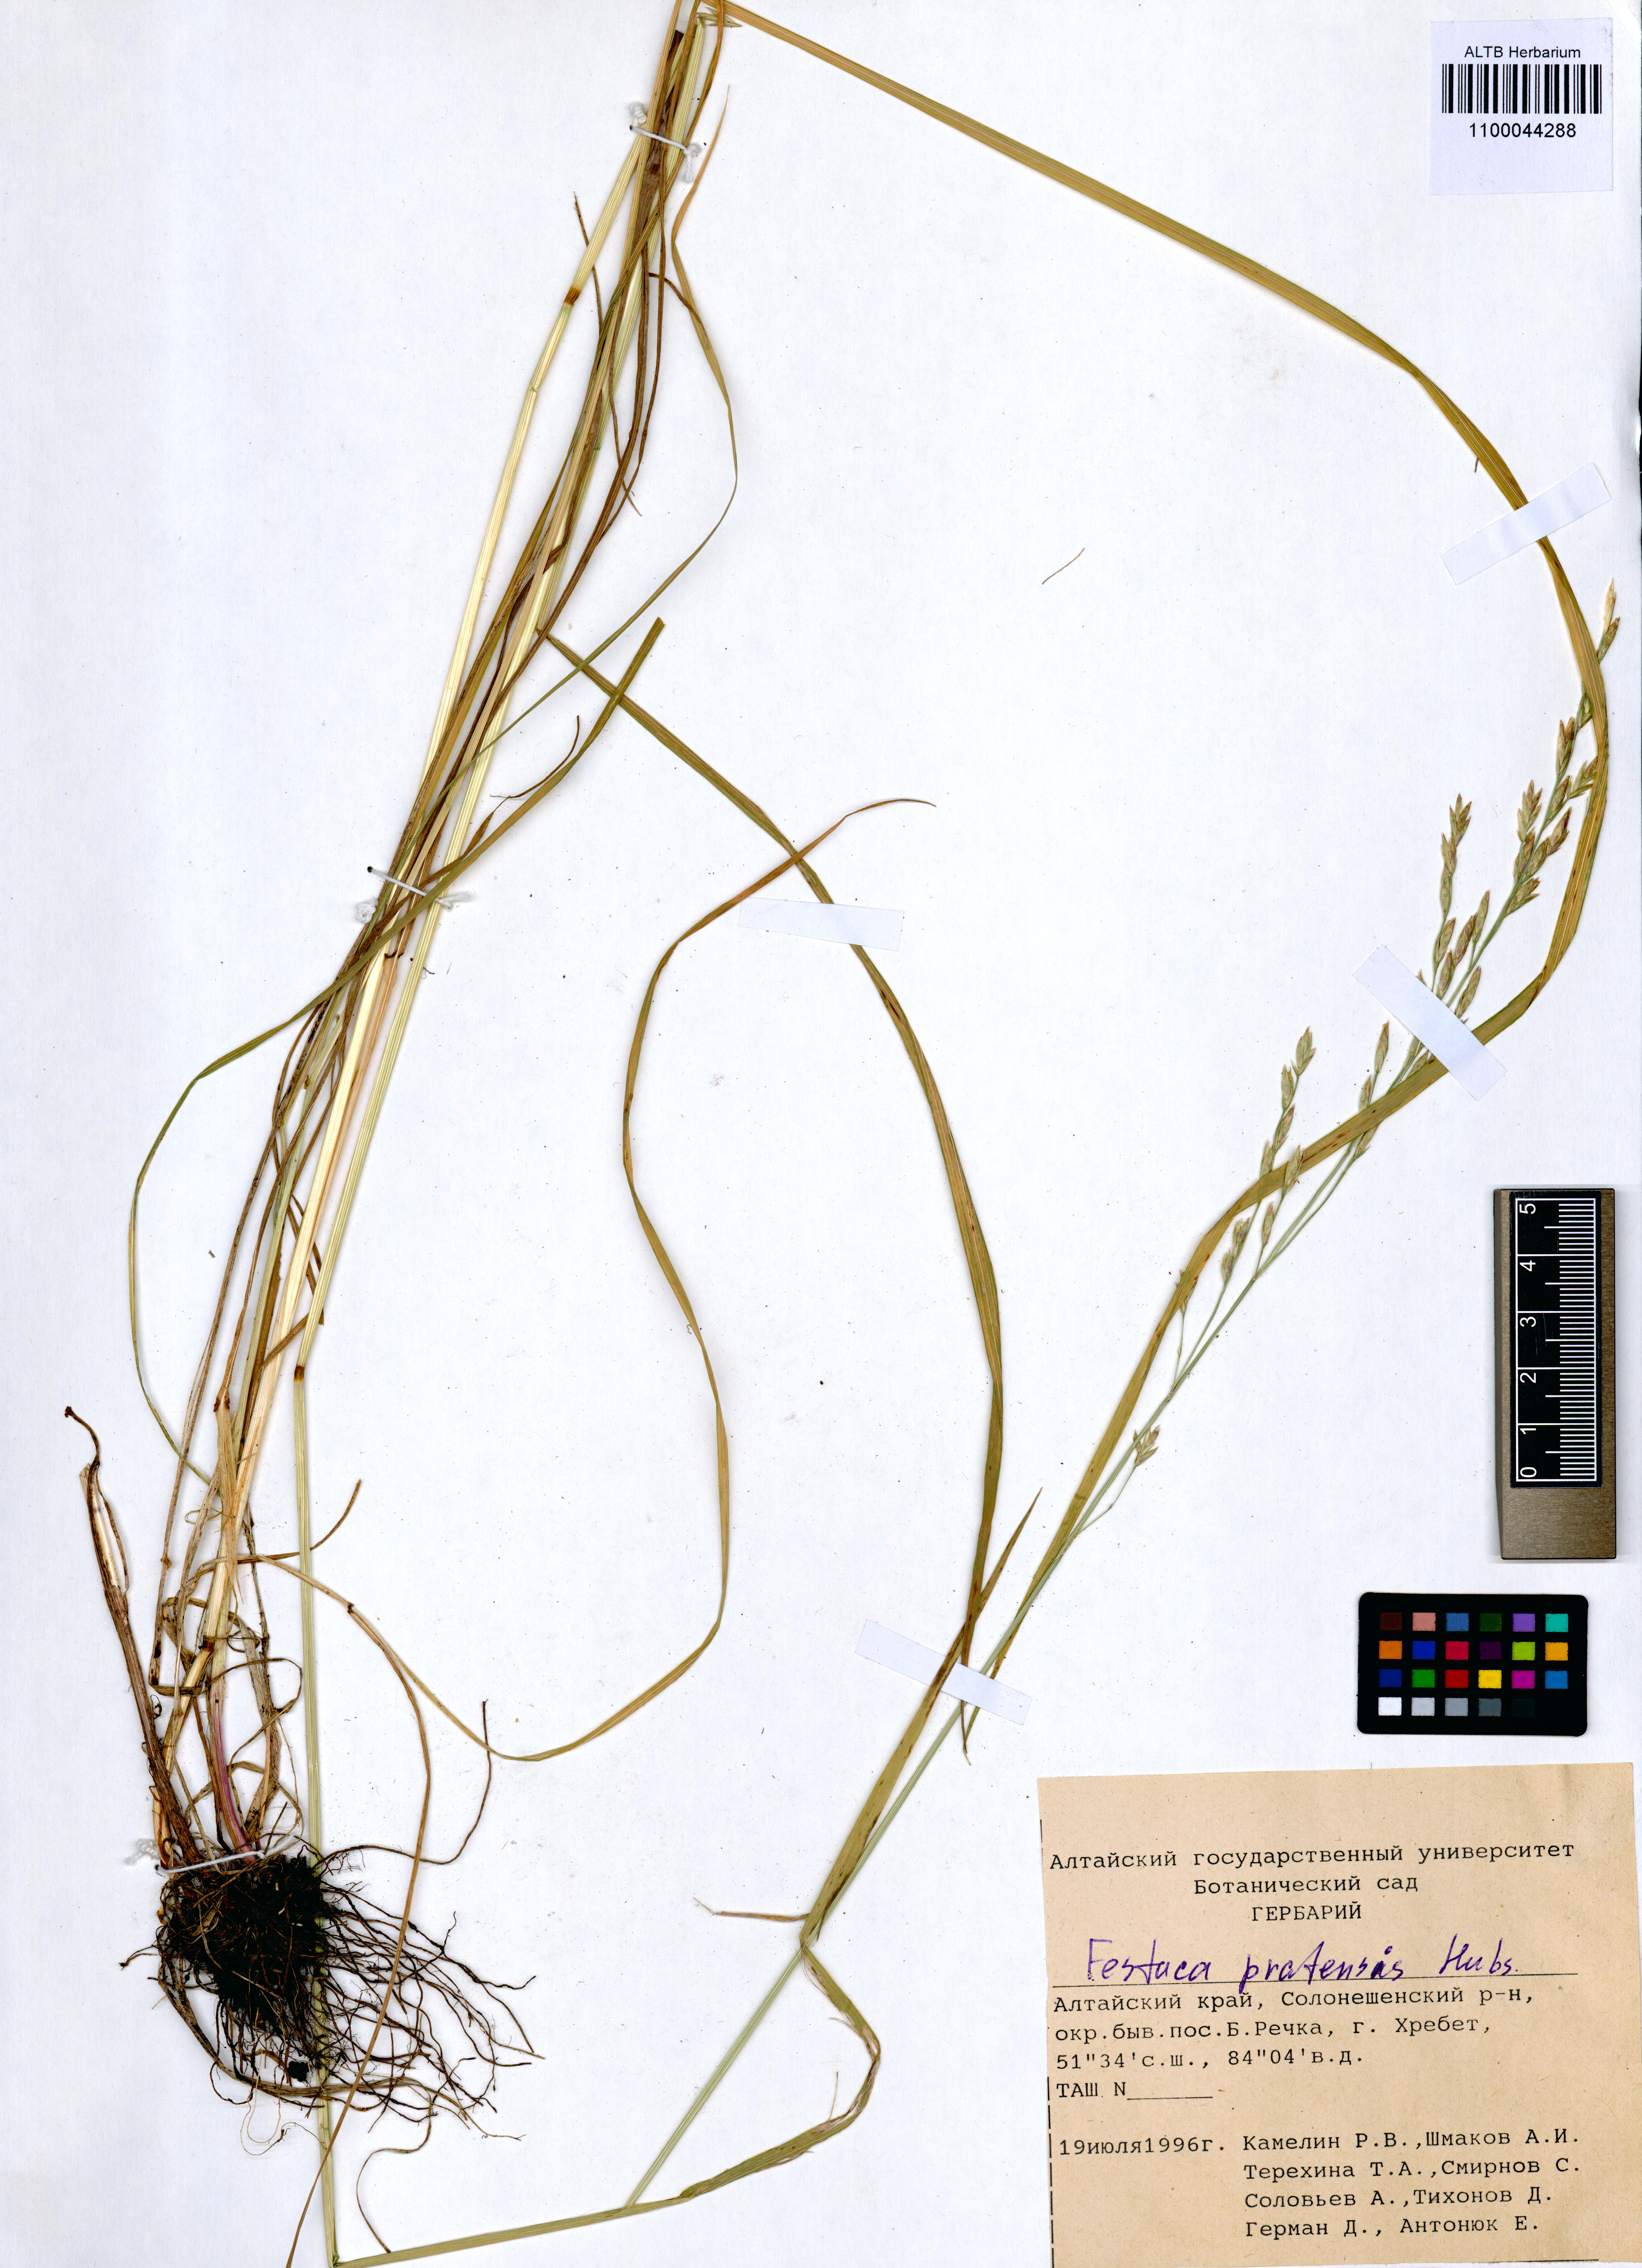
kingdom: Plantae
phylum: Tracheophyta
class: Liliopsida
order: Poales
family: Poaceae
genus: Lolium
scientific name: Lolium pratense
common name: Dover grass
